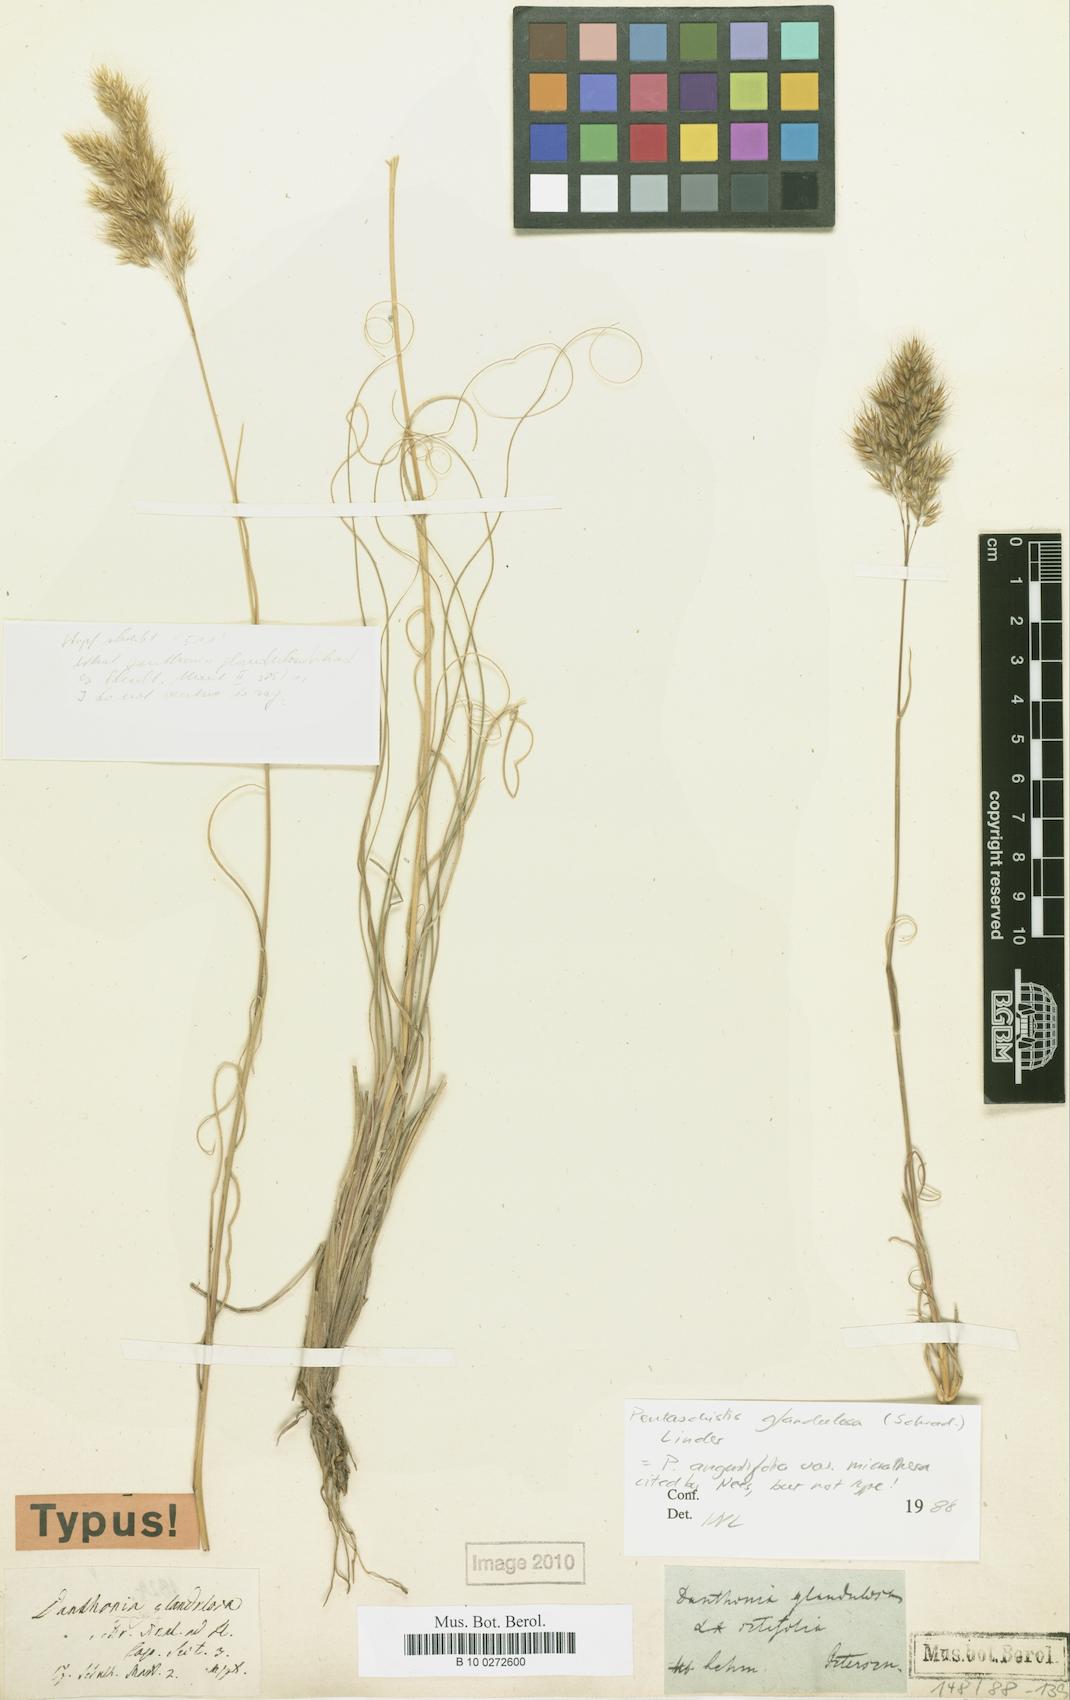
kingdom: Plantae
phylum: Tracheophyta
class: Liliopsida
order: Poales
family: Poaceae
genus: Pentameris
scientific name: Pentameris glandulosa
